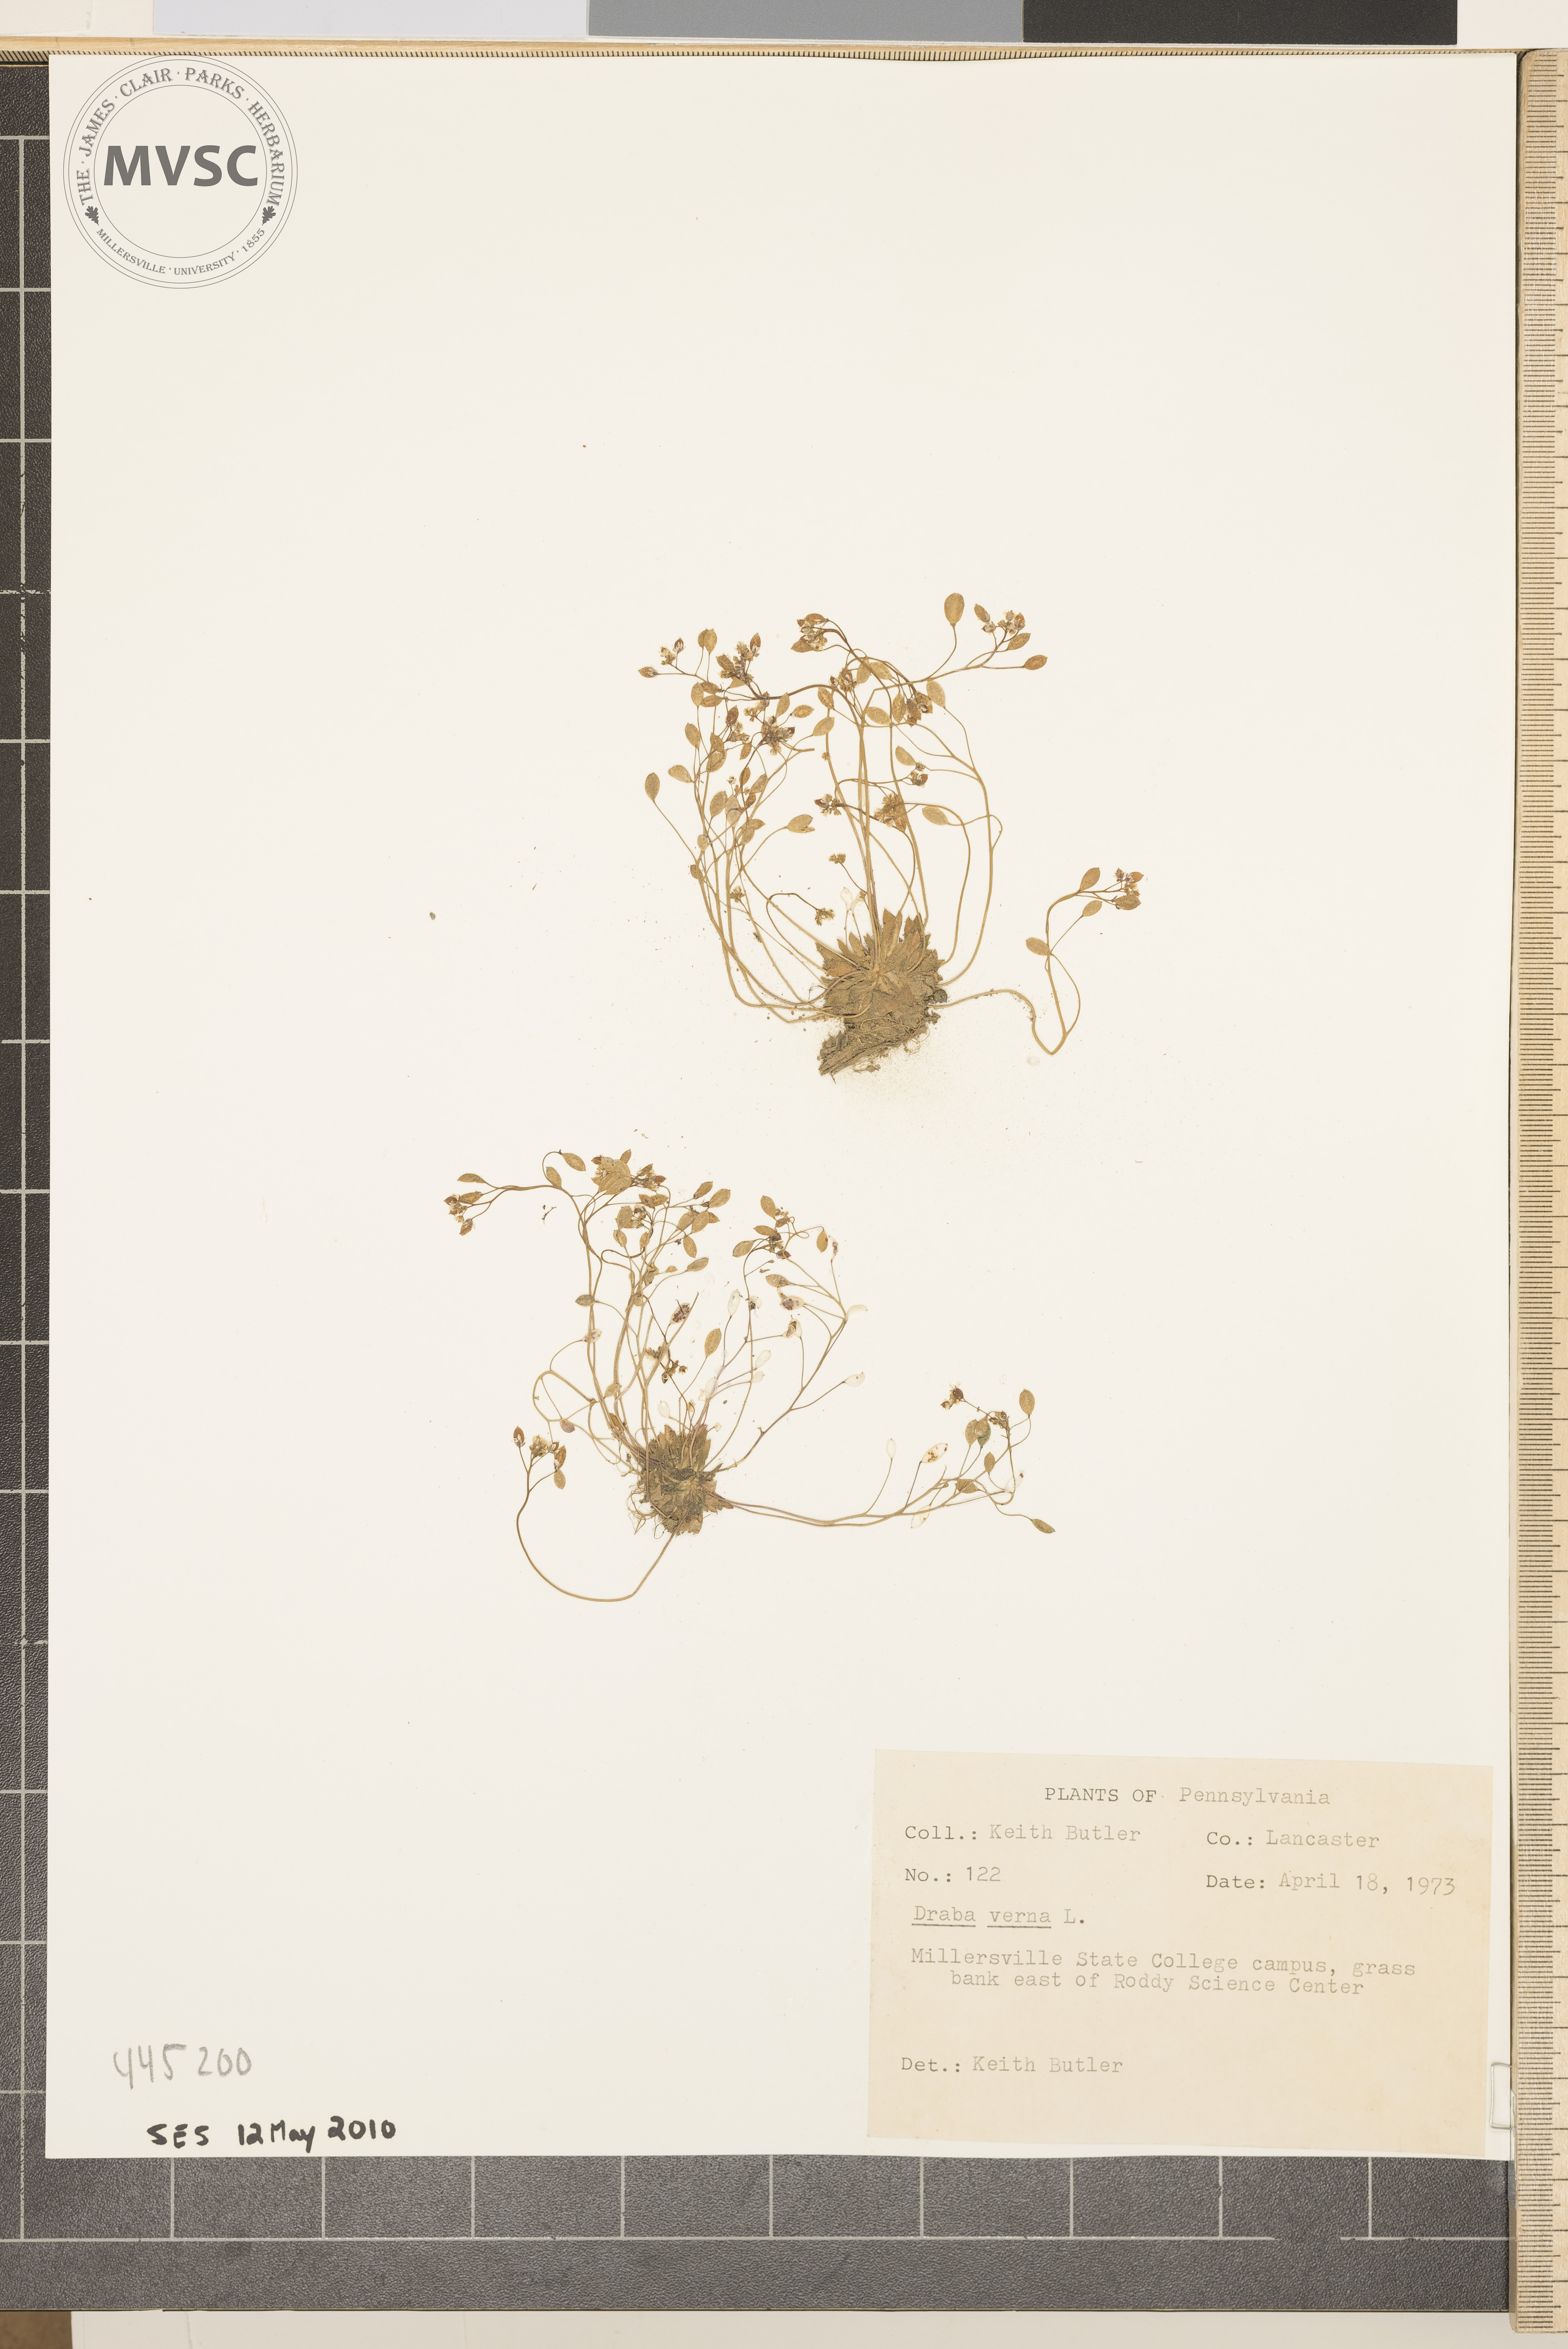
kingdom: Plantae
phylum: Tracheophyta
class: Magnoliopsida
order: Brassicales
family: Brassicaceae
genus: Draba
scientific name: Draba verna
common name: Spring draba
